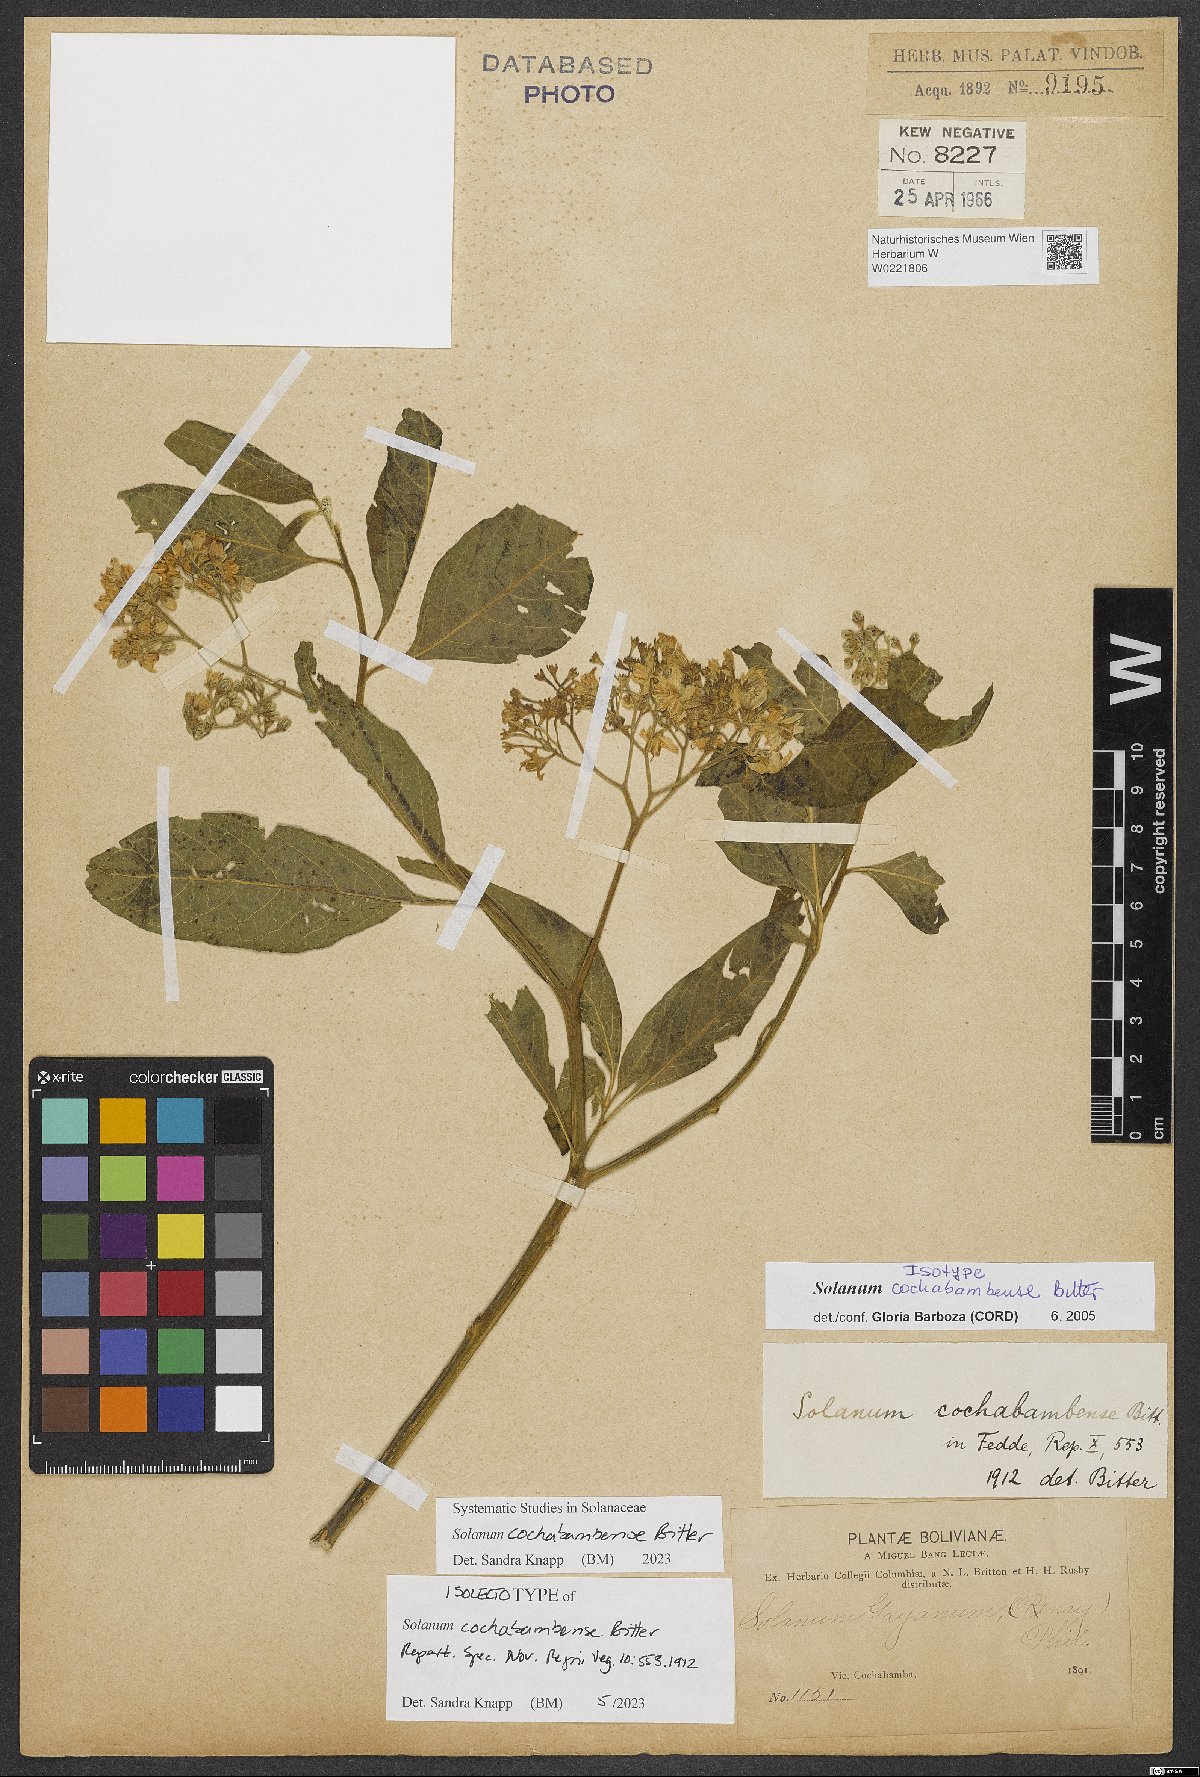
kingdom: Plantae
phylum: Tracheophyta
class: Magnoliopsida
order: Solanales
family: Solanaceae
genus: Solanum
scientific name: Solanum cochabambense
